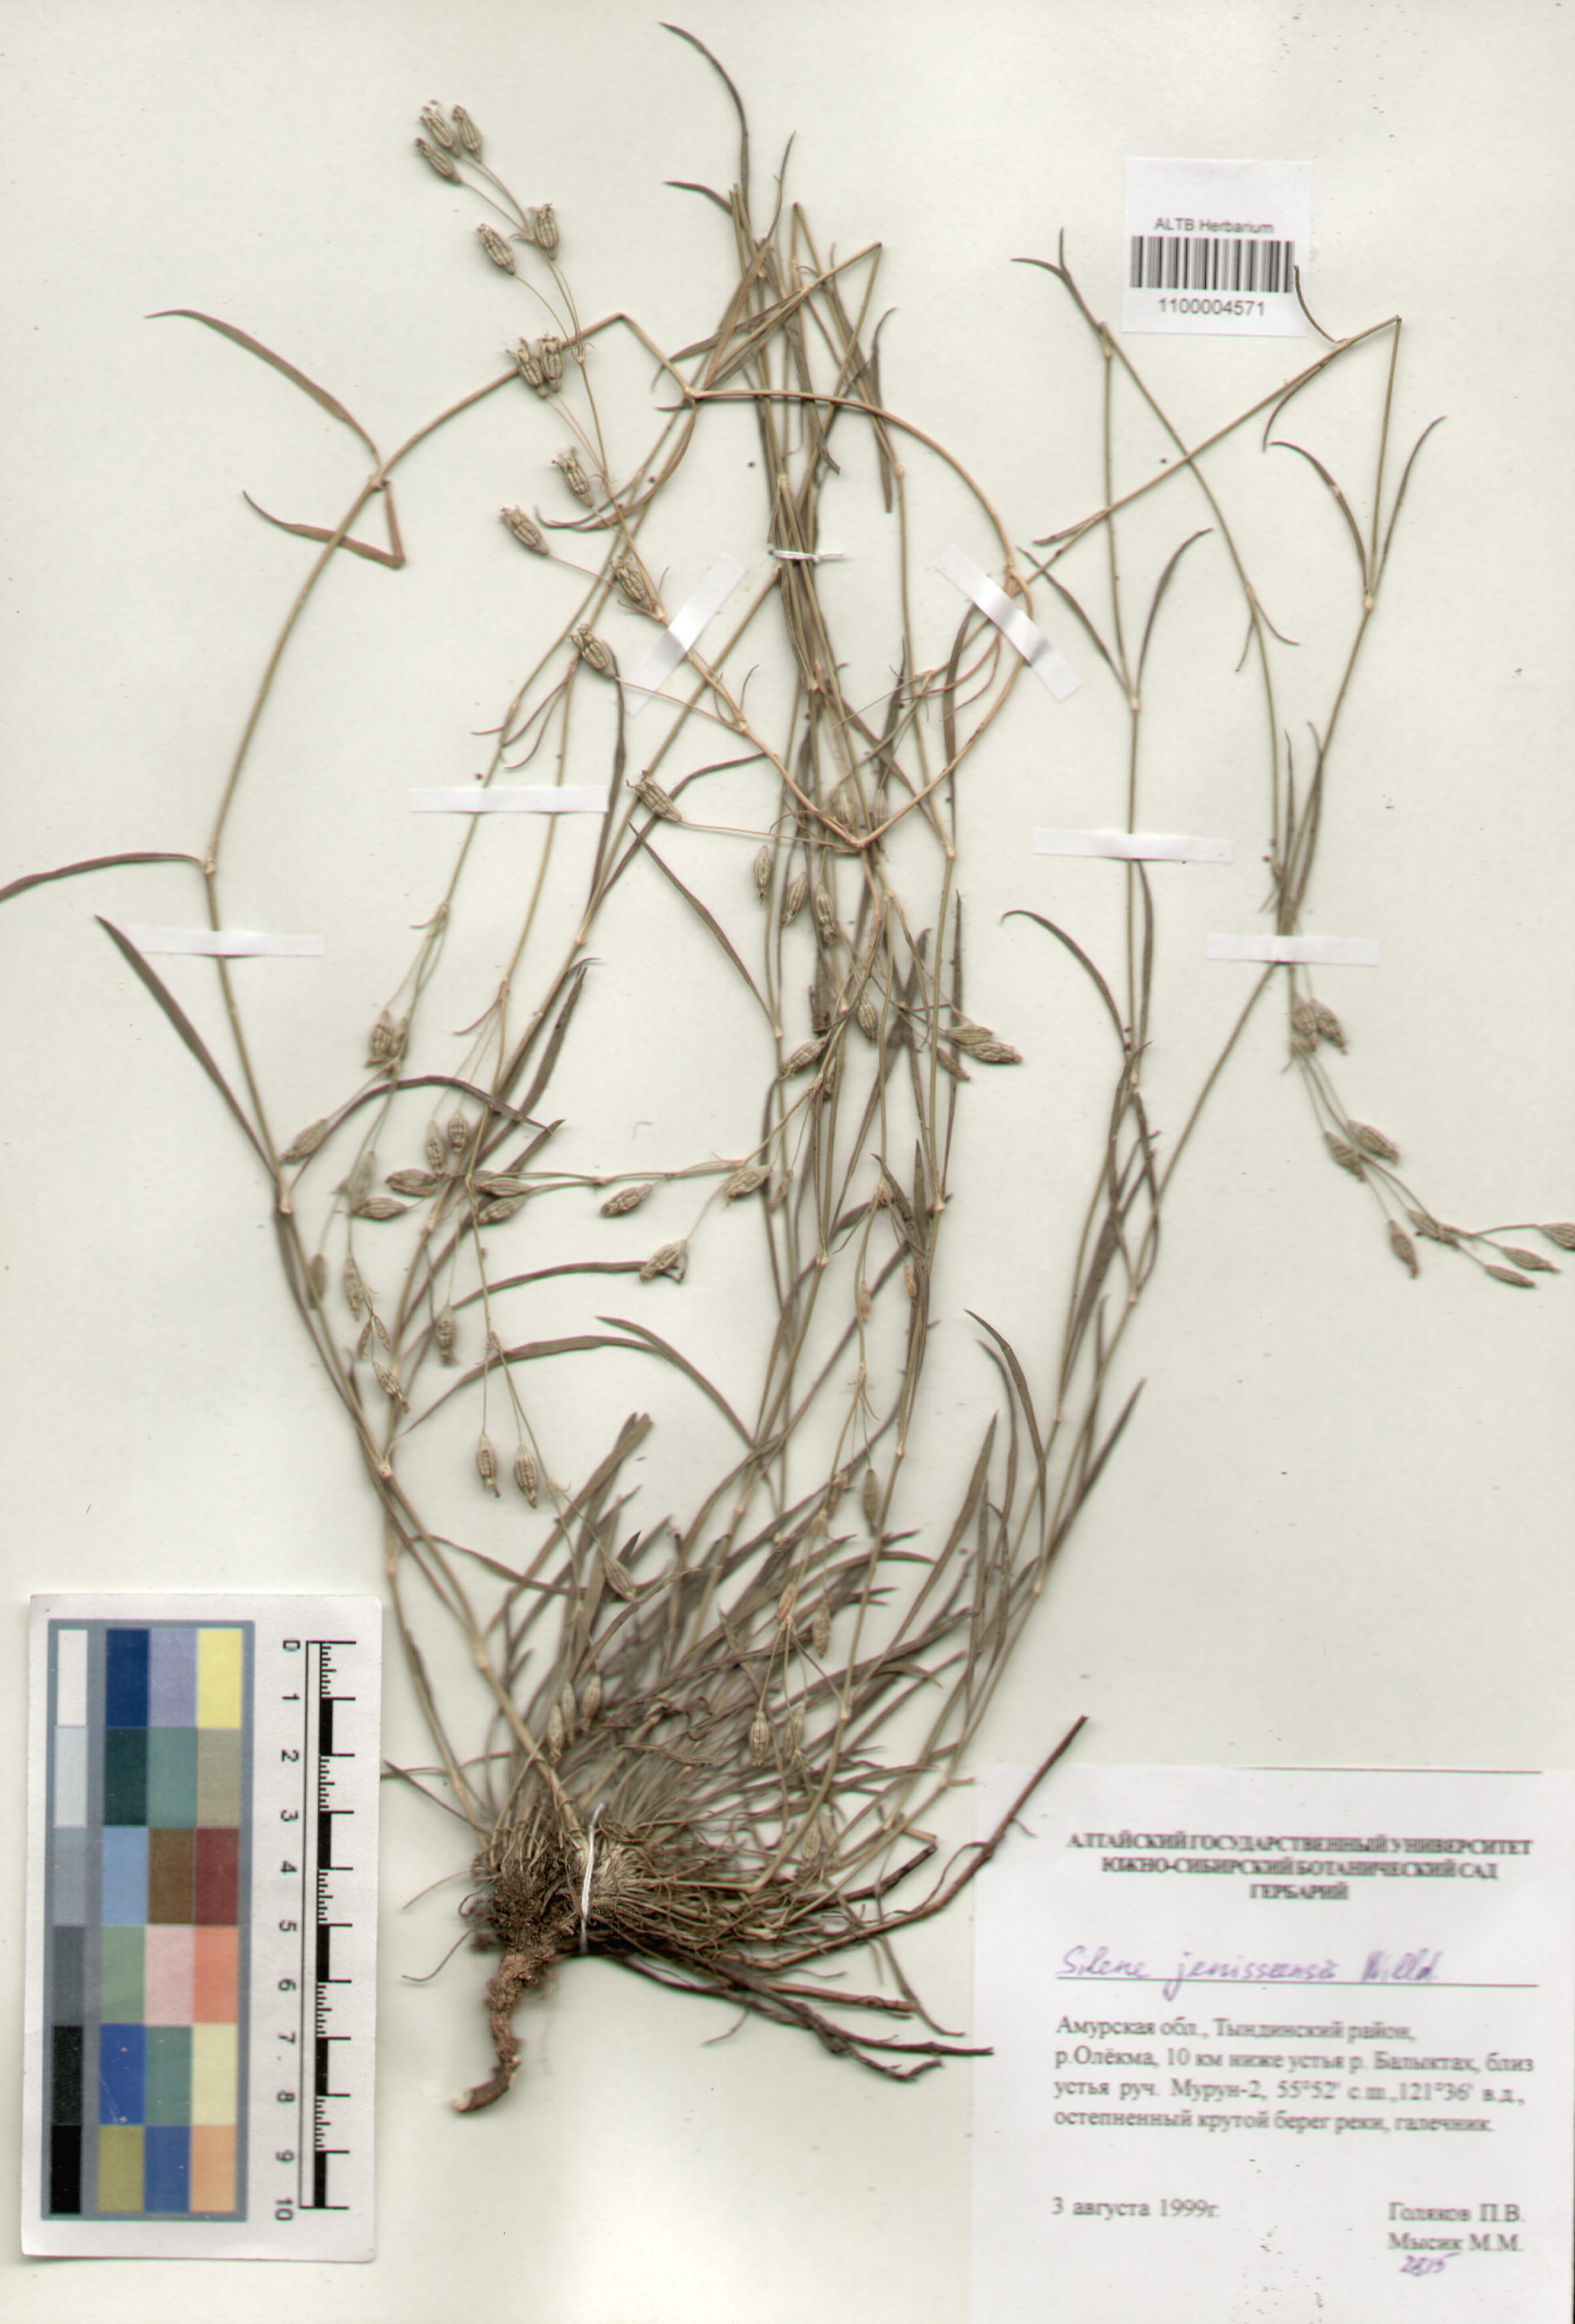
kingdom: Plantae
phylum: Tracheophyta
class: Magnoliopsida
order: Caryophyllales
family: Caryophyllaceae
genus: Silene
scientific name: Silene jeniseensis
